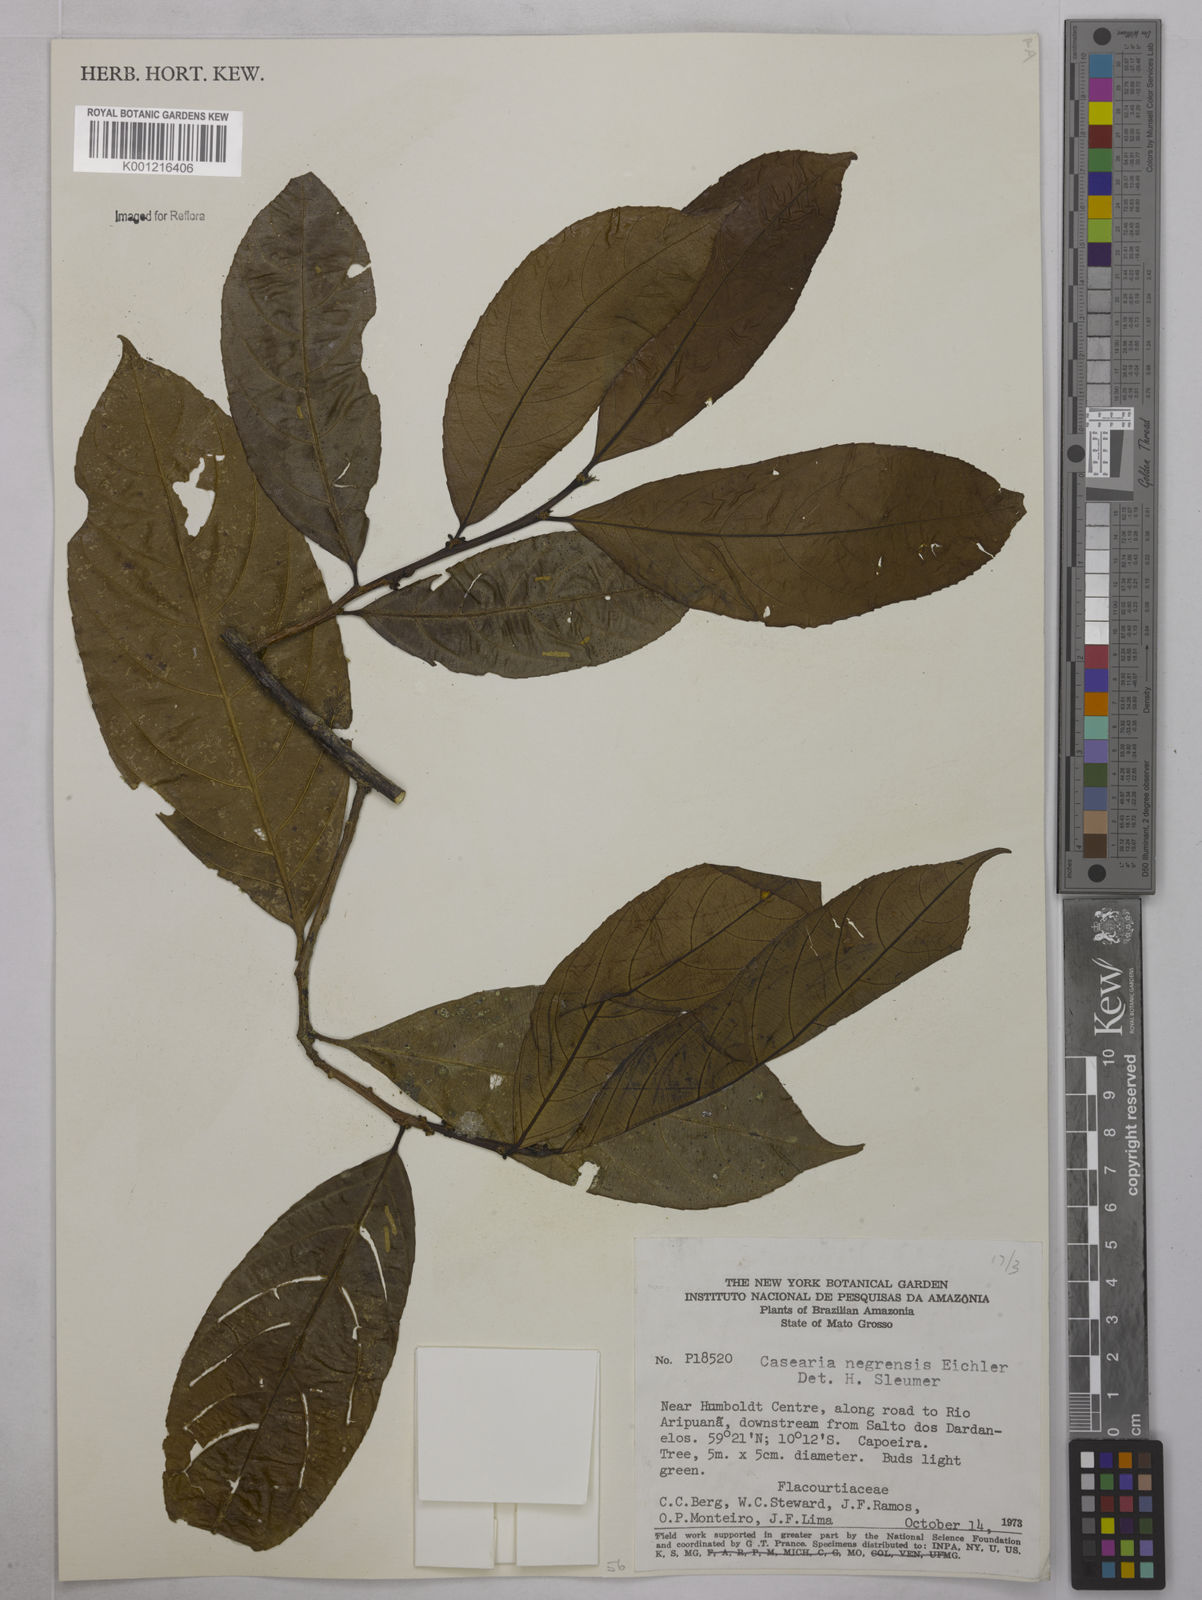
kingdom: Plantae
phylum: Tracheophyta
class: Magnoliopsida
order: Malpighiales
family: Salicaceae
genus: Casearia
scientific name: Casearia negrensis
